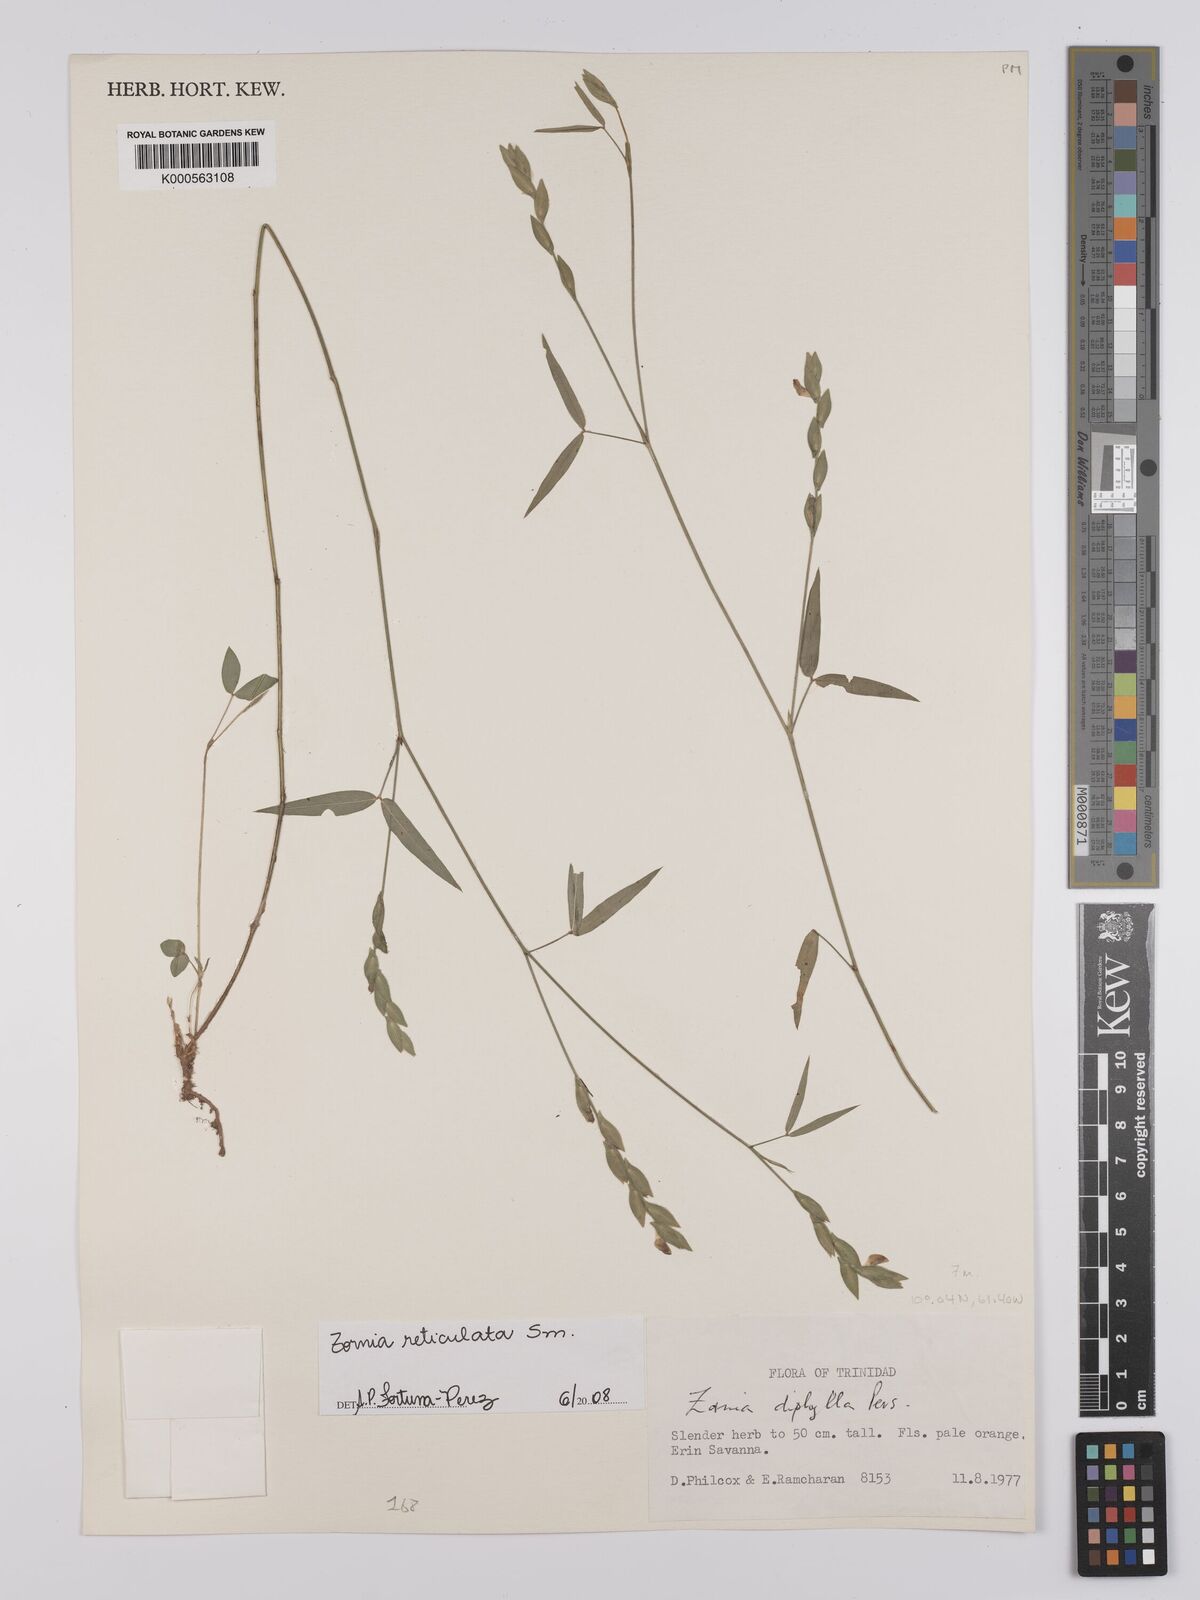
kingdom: Plantae
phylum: Tracheophyta
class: Magnoliopsida
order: Fabales
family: Fabaceae
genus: Zornia
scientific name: Zornia reticulata
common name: Reticulate viperina
